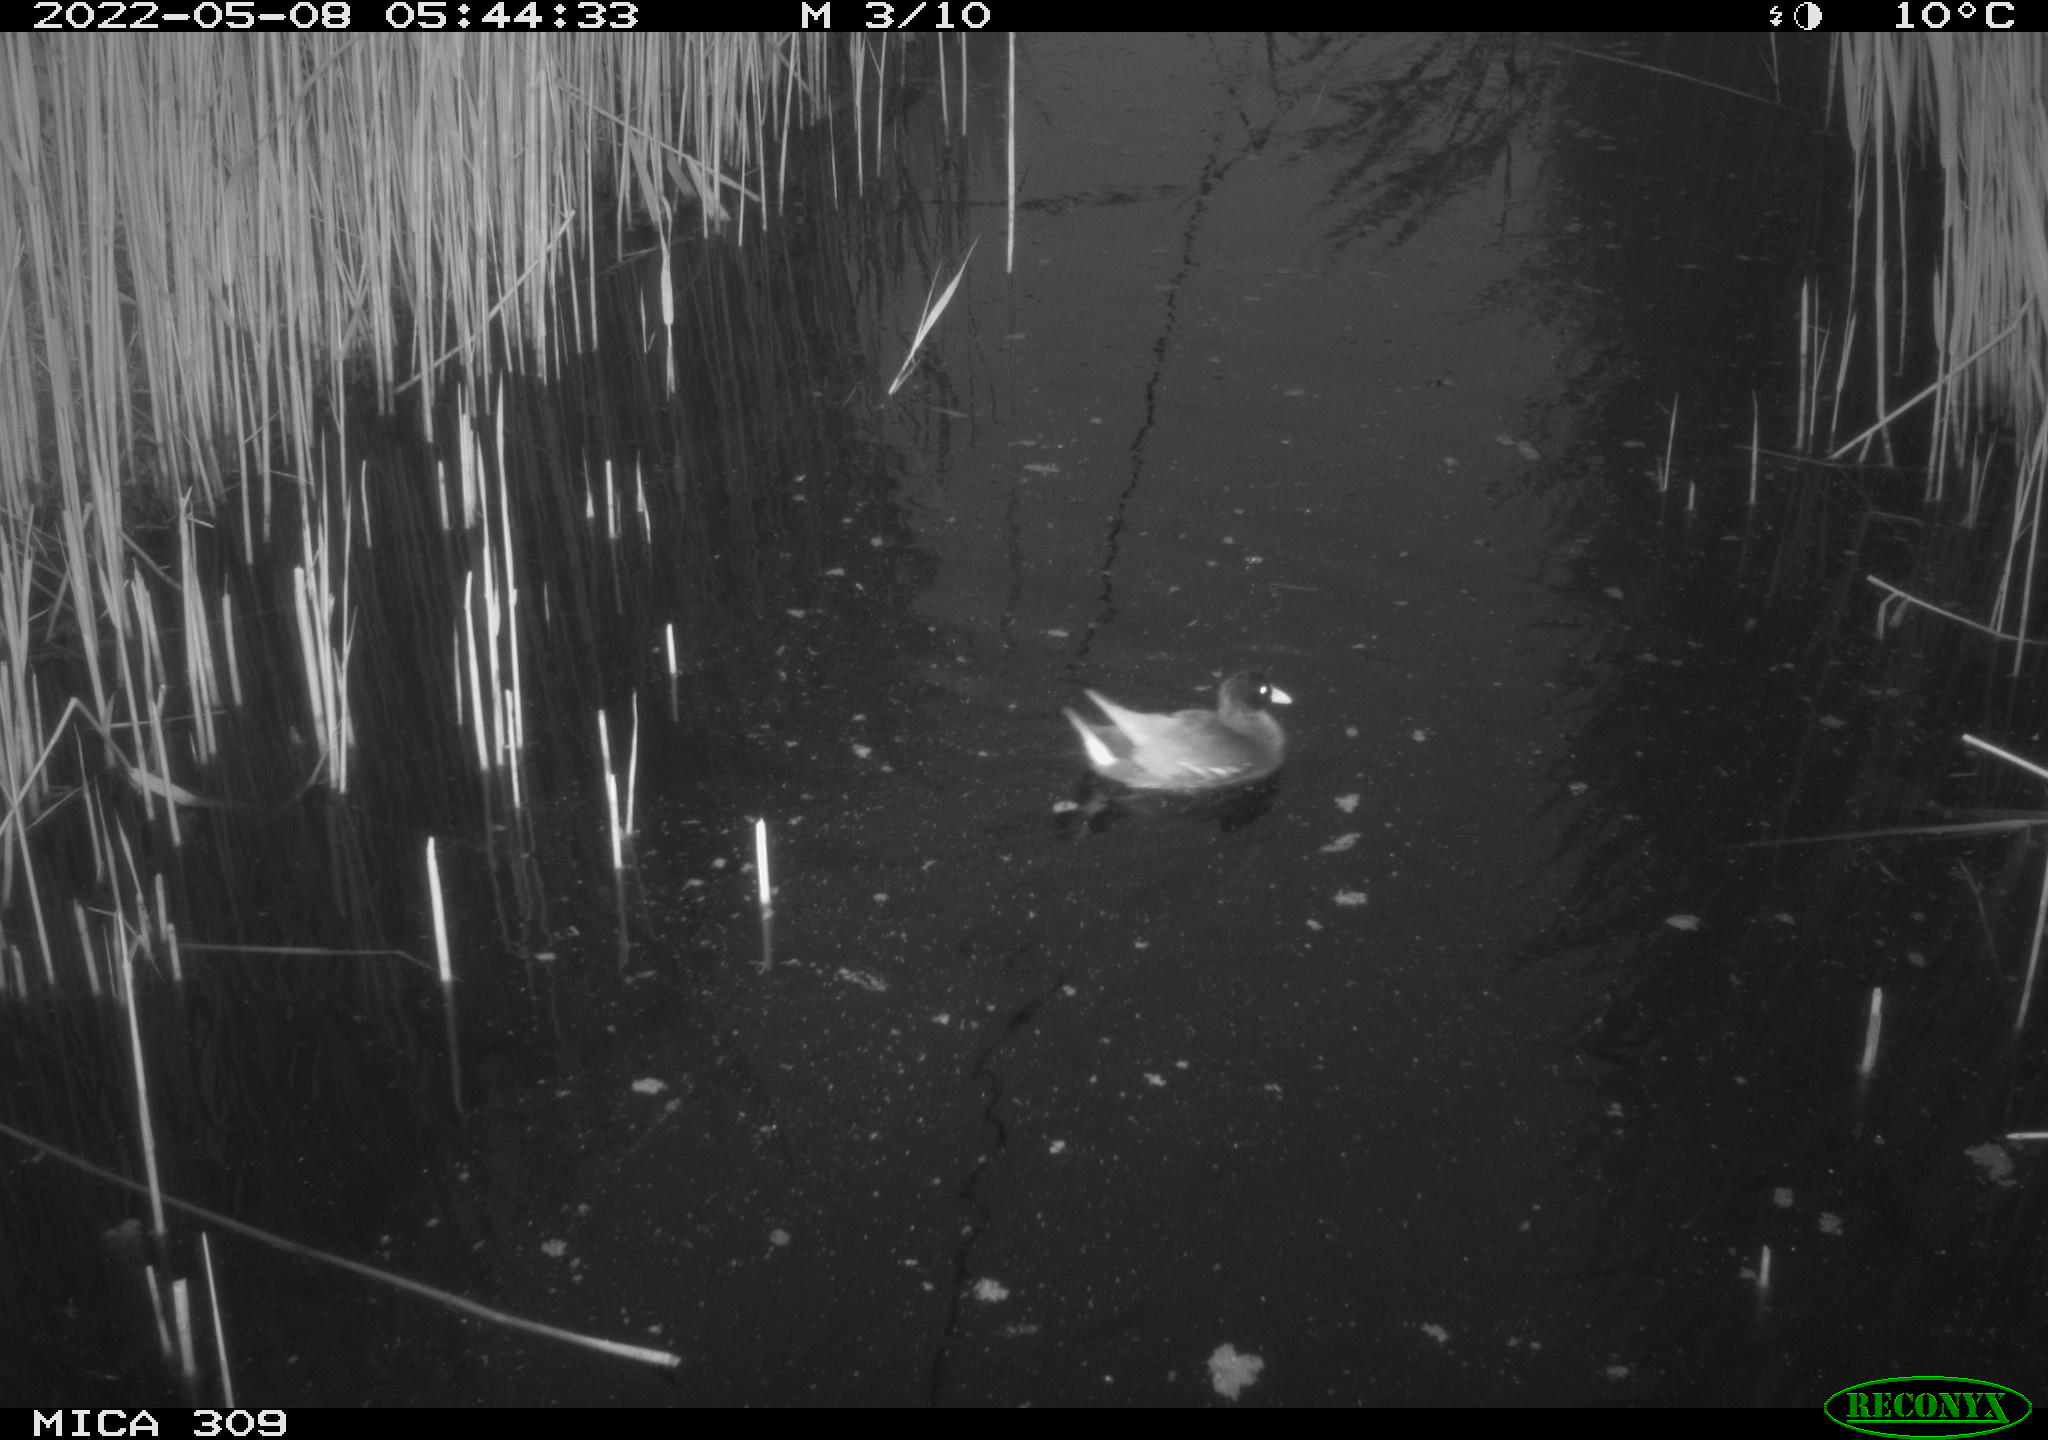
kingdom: Animalia
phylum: Chordata
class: Aves
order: Gruiformes
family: Rallidae
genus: Gallinula
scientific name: Gallinula chloropus
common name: Common moorhen
